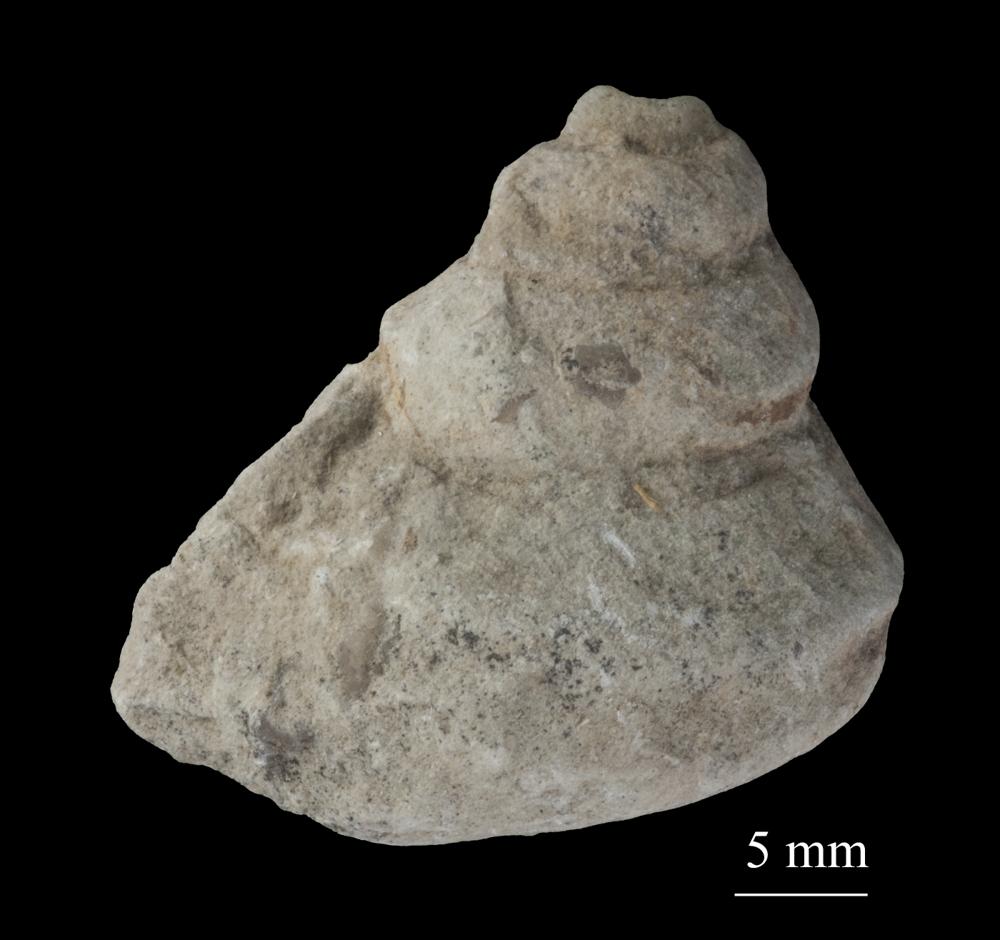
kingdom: Animalia
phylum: Mollusca
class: Gastropoda
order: Neogastropoda
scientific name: Neogastropoda
